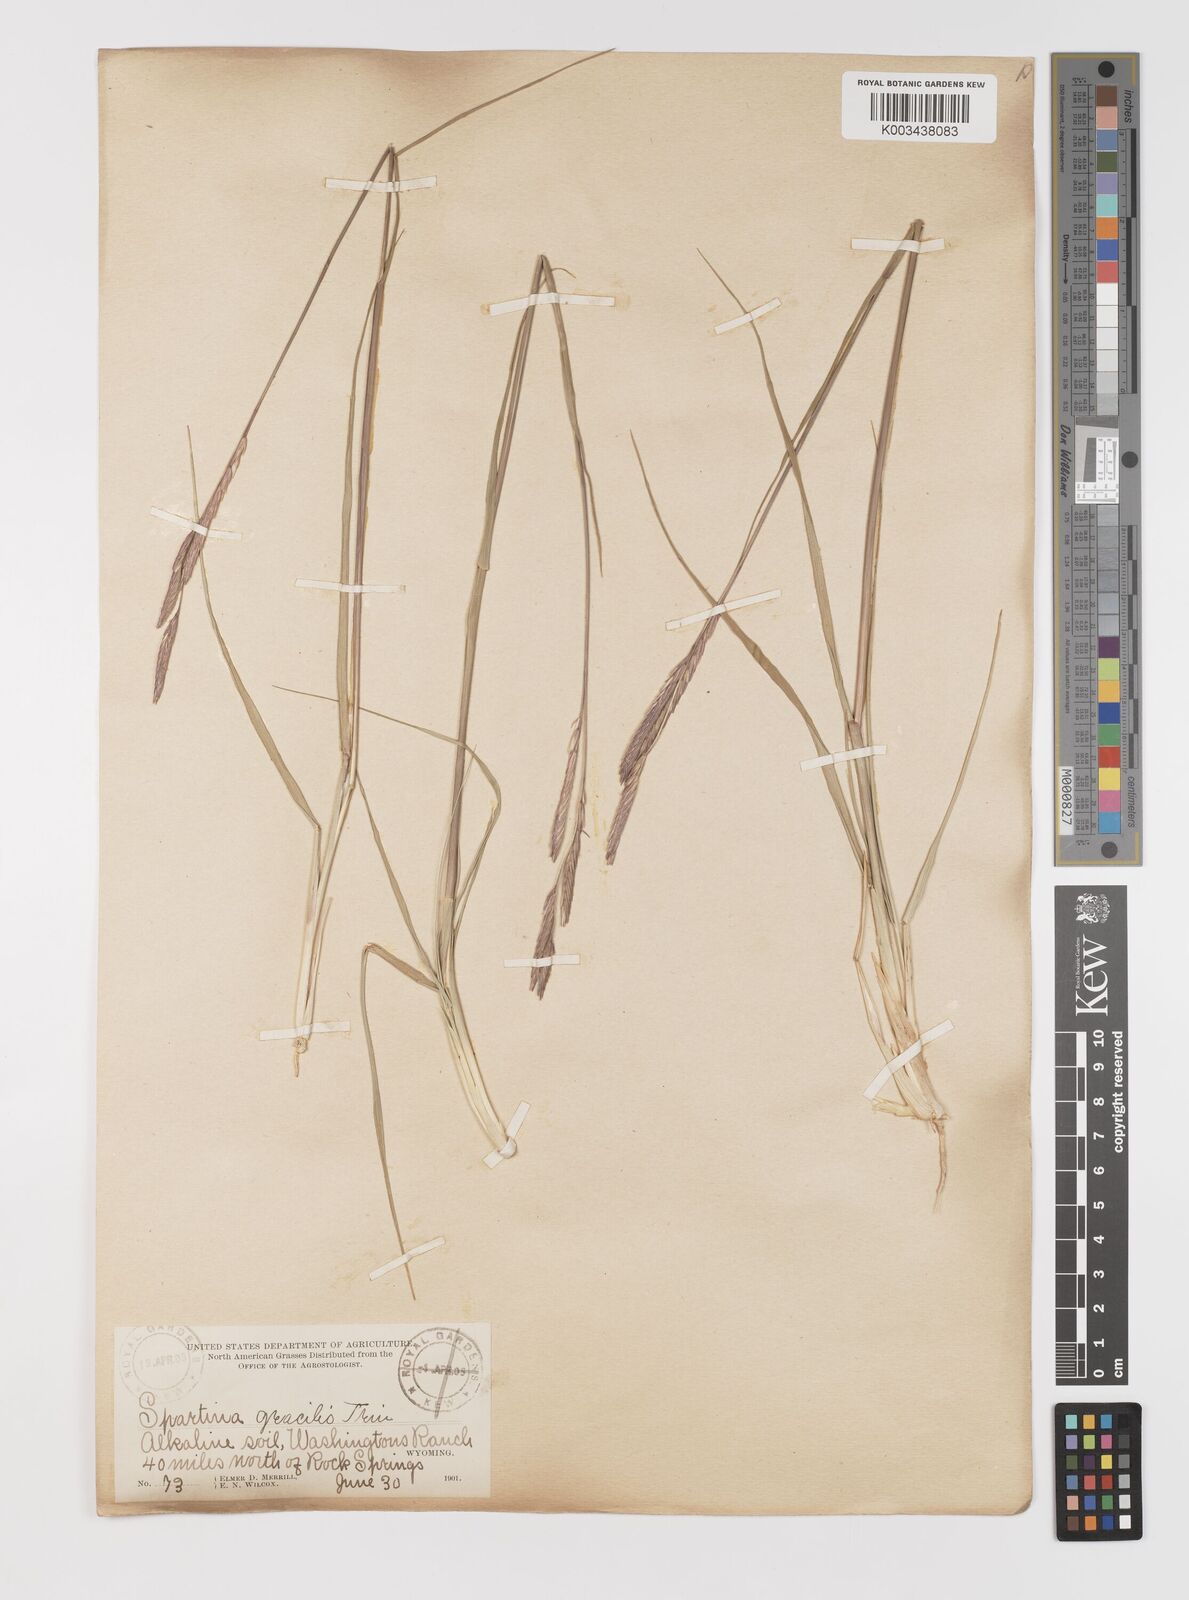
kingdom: Plantae
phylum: Tracheophyta
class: Liliopsida
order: Poales
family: Poaceae
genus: Sporobolus
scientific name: Sporobolus hookerianus
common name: Alkali cordgrass
